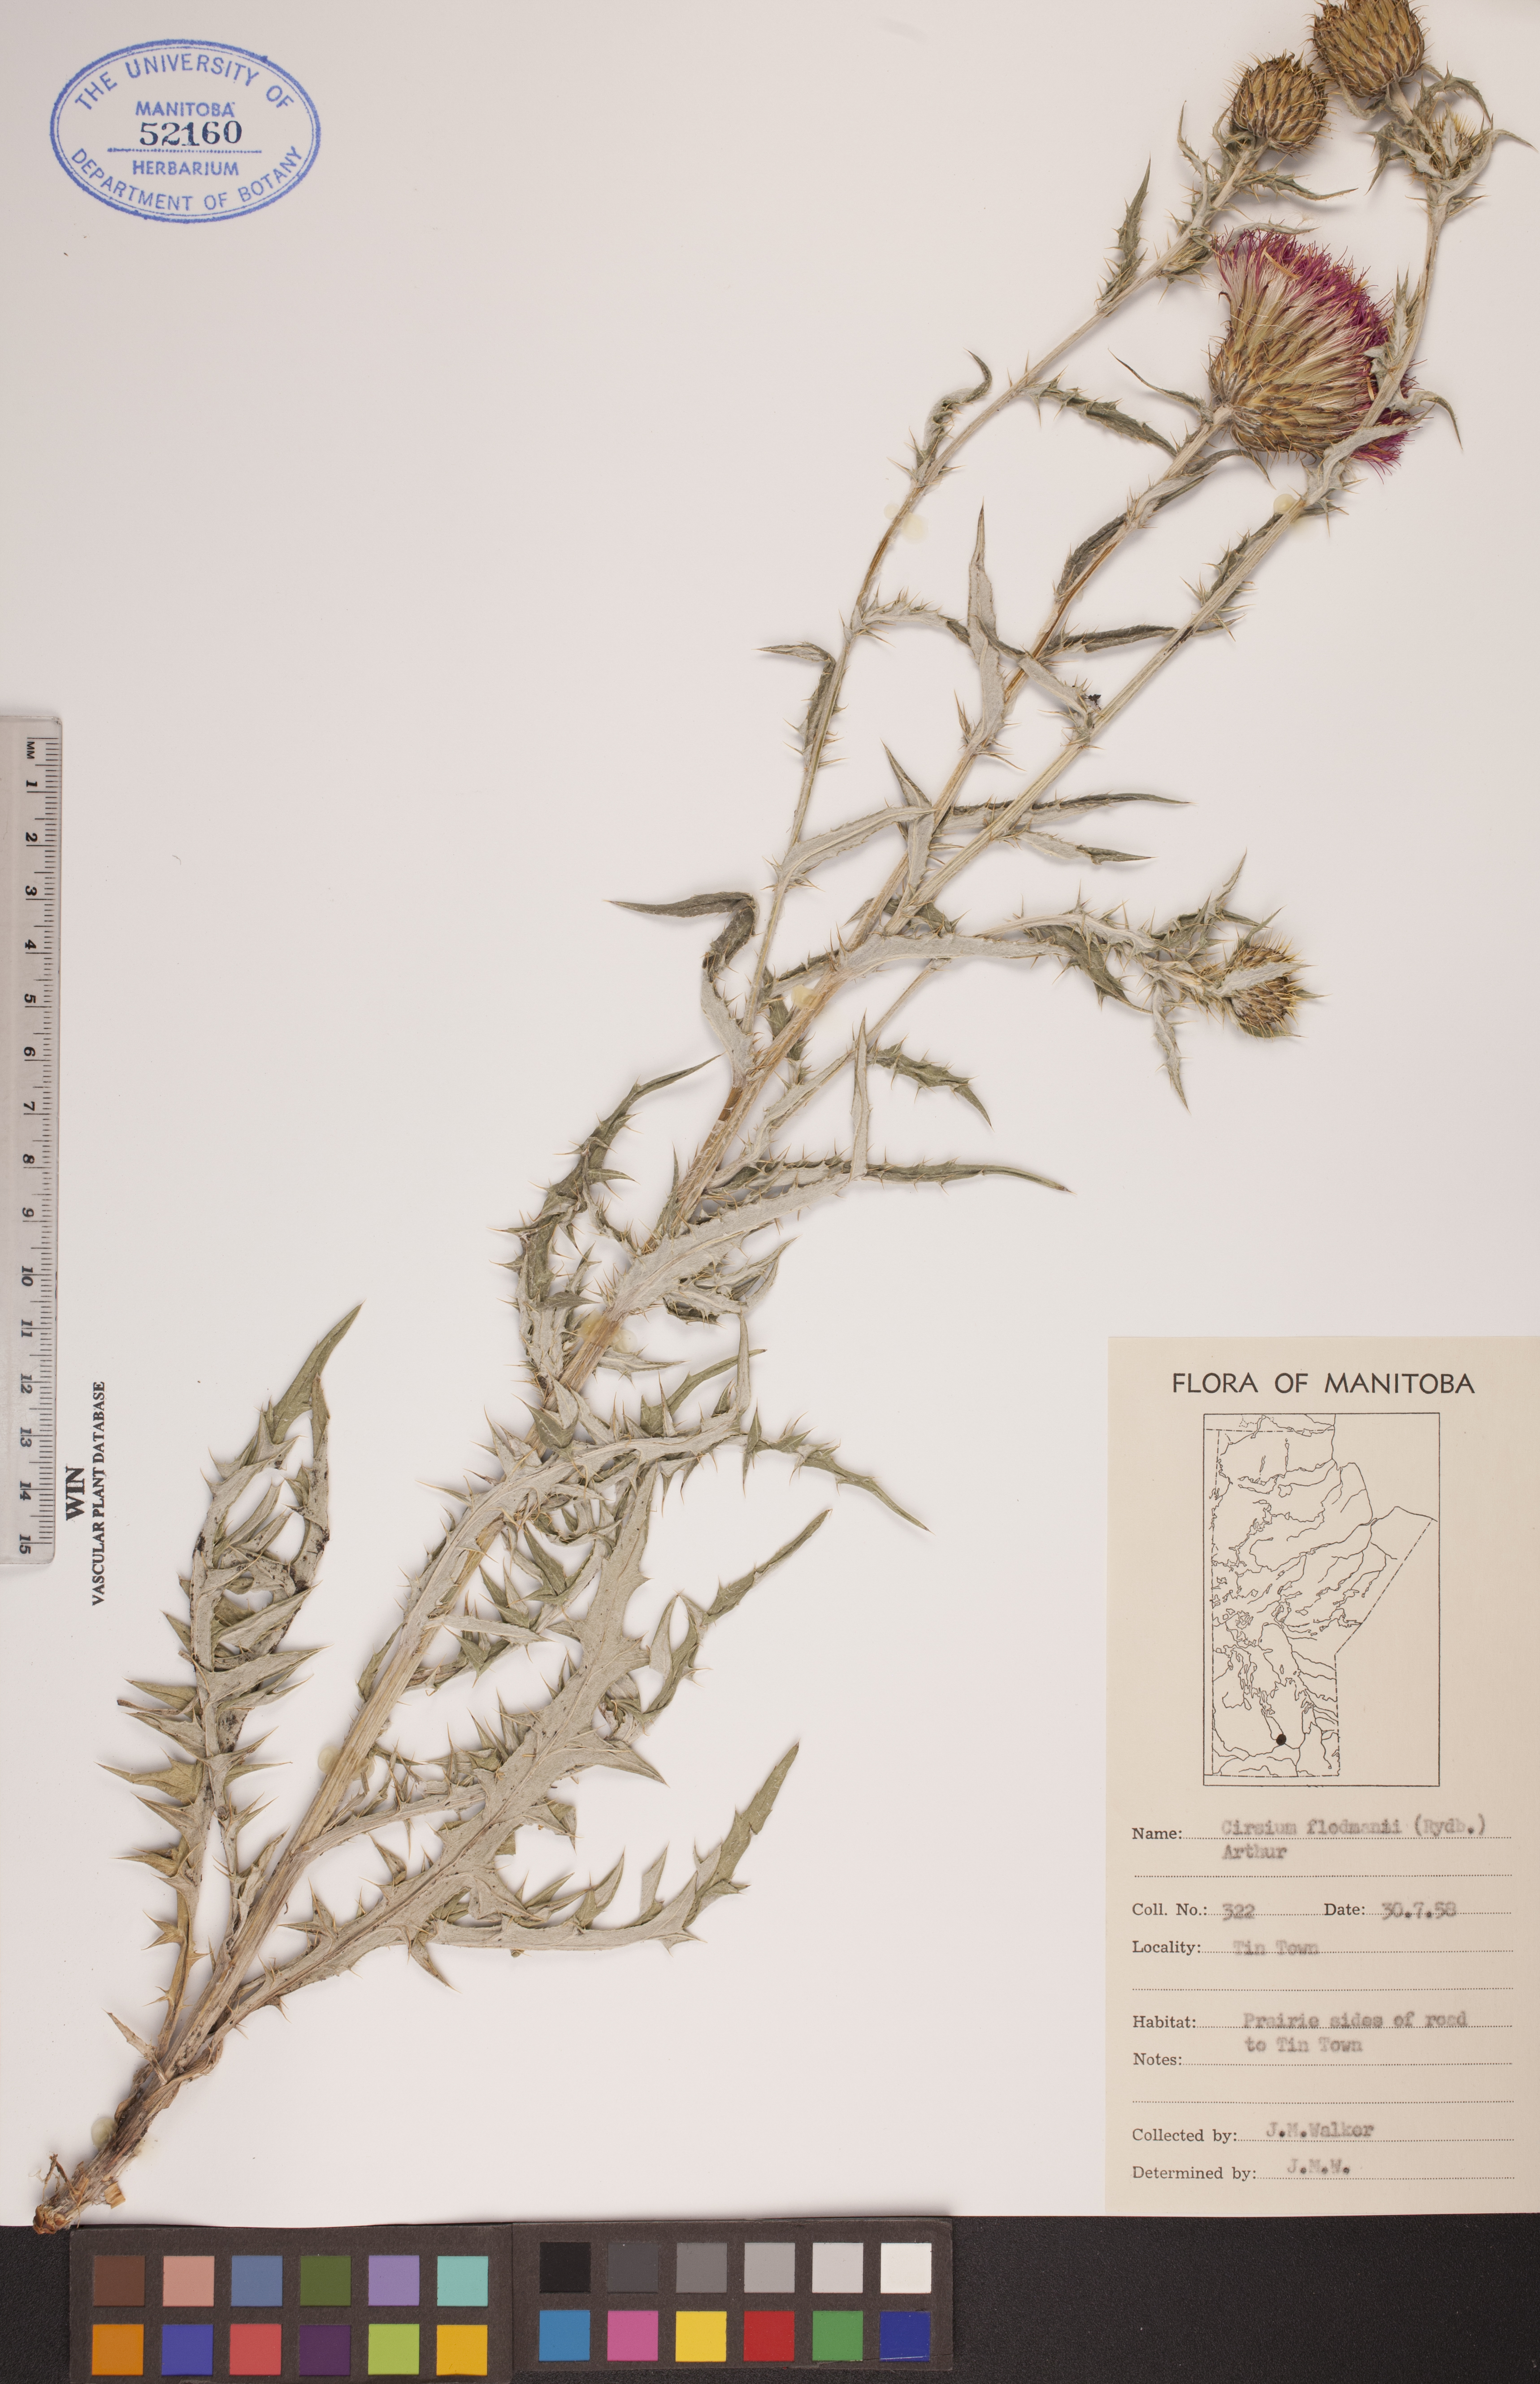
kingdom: Plantae
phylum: Tracheophyta
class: Magnoliopsida
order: Asterales
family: Asteraceae
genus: Cirsium
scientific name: Cirsium flodmanii
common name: Flodman's thistle
